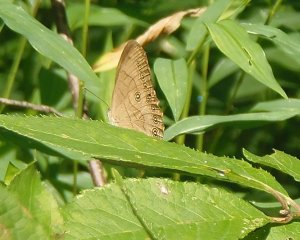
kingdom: Animalia
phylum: Arthropoda
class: Insecta
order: Lepidoptera
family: Nymphalidae
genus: Lethe
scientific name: Lethe eurydice
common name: Appalachian Eyed Brown
